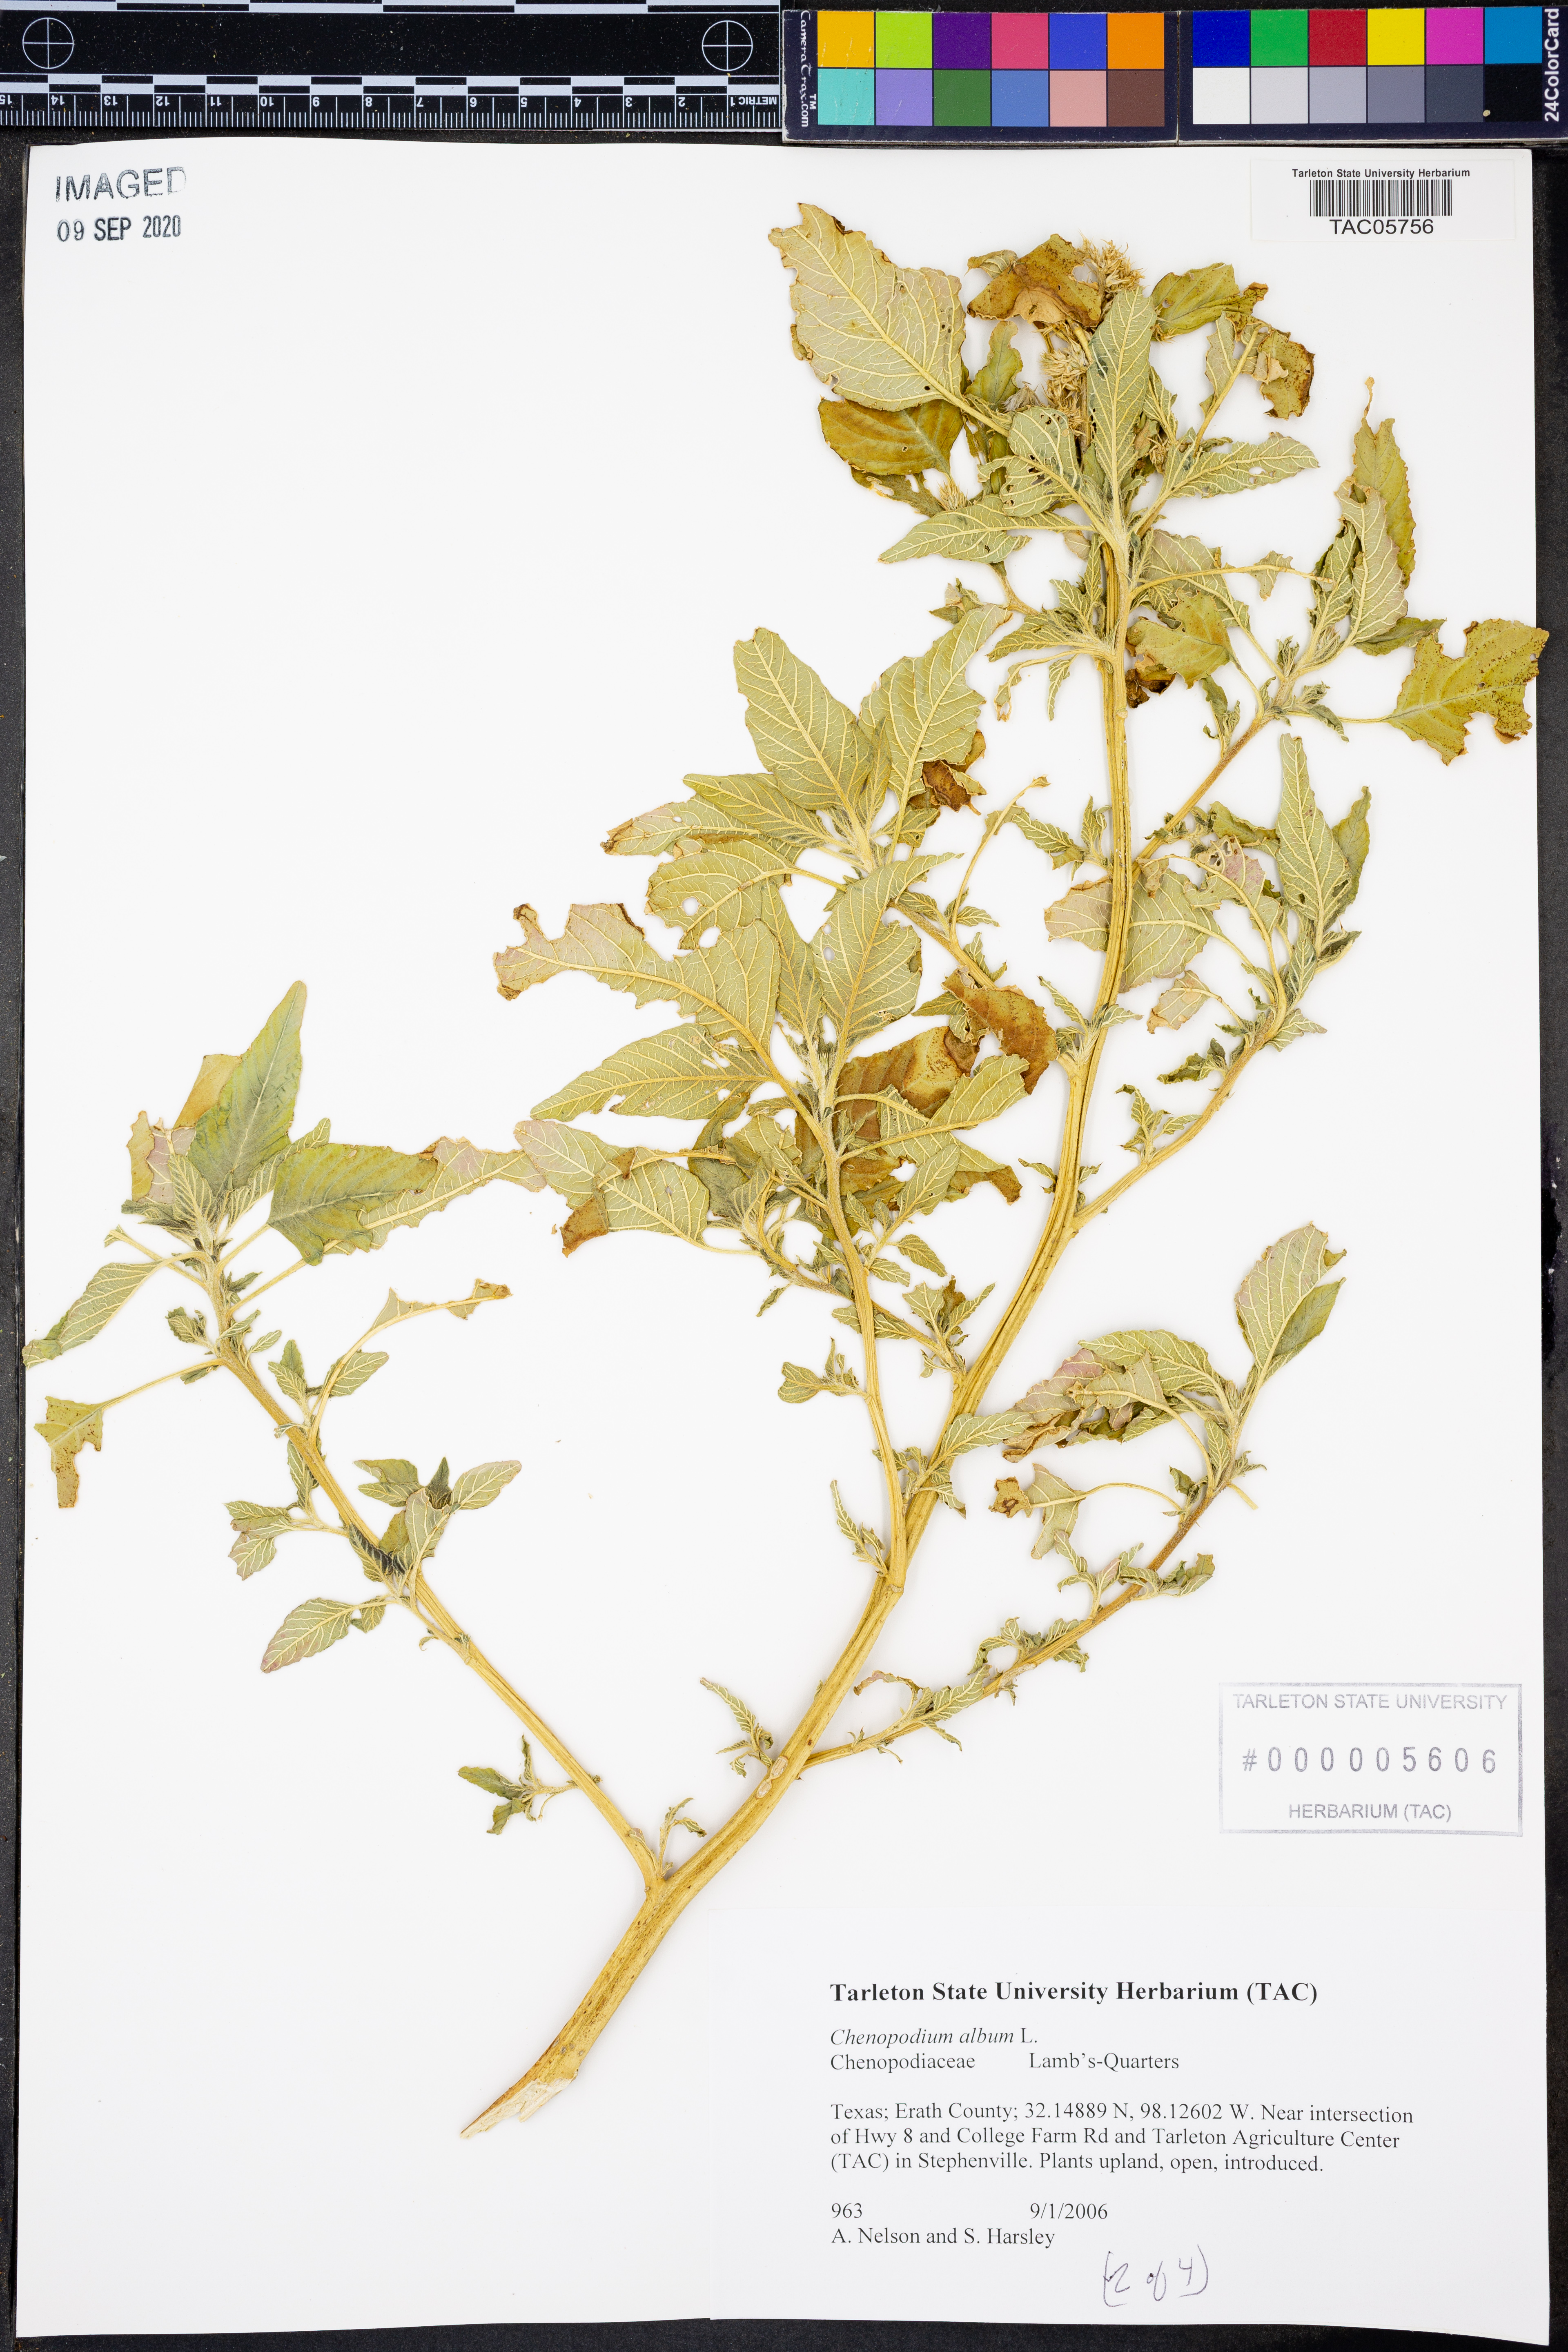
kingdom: Plantae
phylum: Tracheophyta
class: Magnoliopsida
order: Caryophyllales
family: Amaranthaceae
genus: Chenopodium
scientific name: Chenopodium album
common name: Fat-hen
